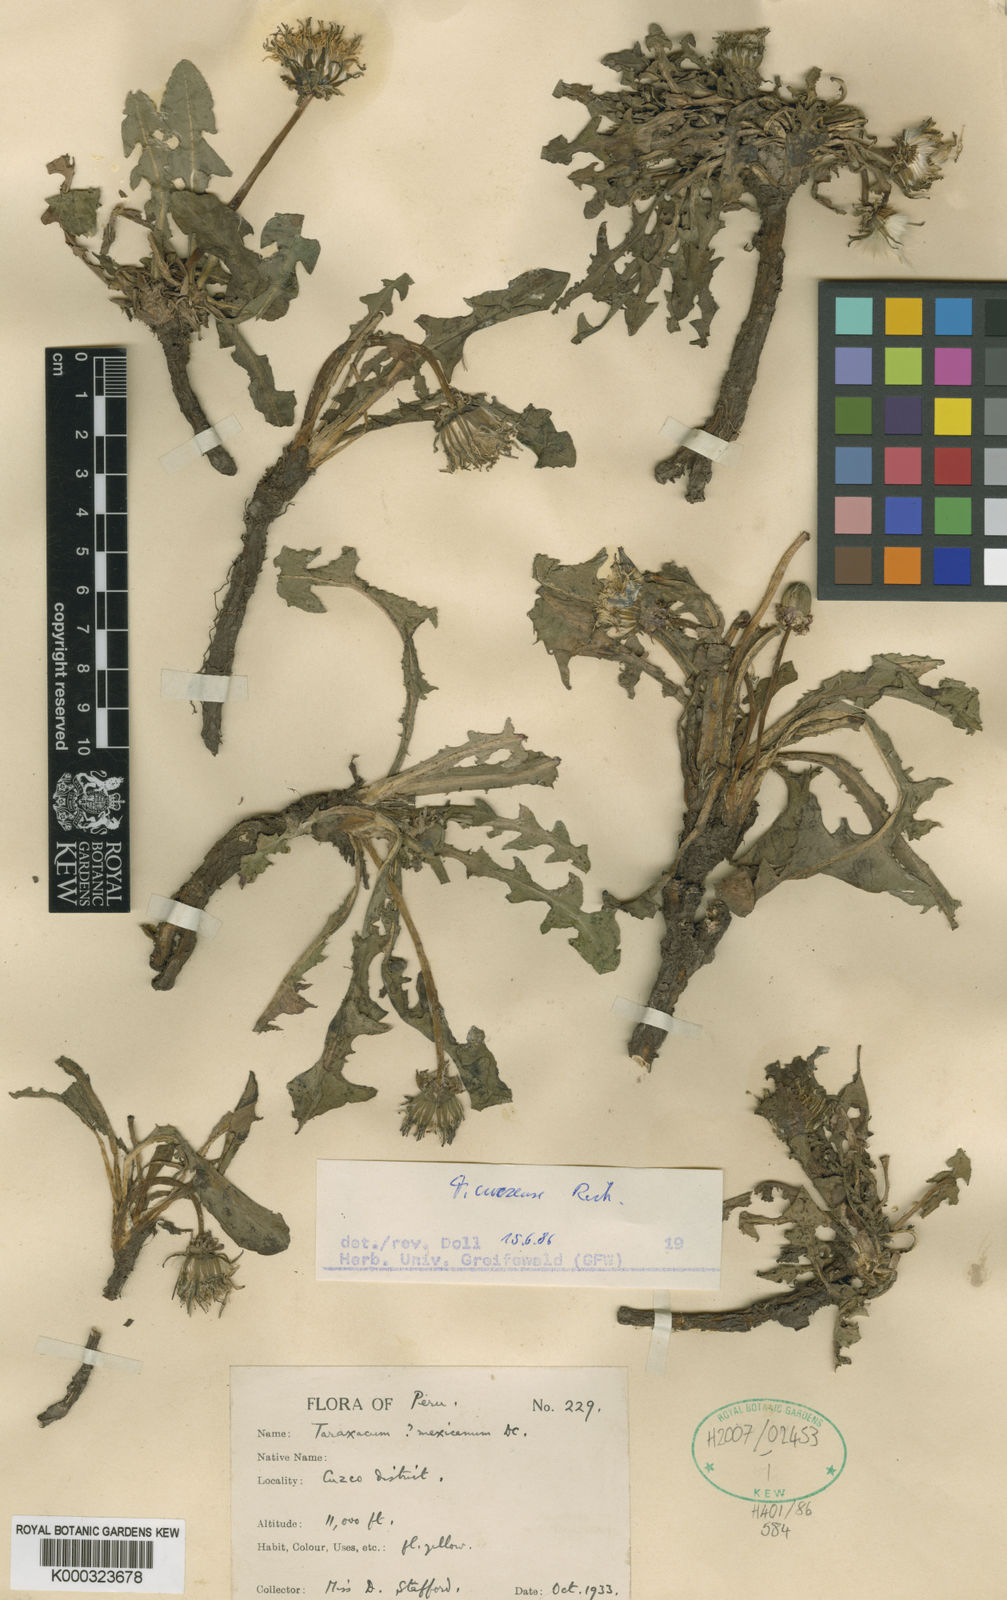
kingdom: Plantae
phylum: Tracheophyta
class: Magnoliopsida
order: Asterales
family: Asteraceae
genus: Taraxacum
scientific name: Taraxacum cuzcense
